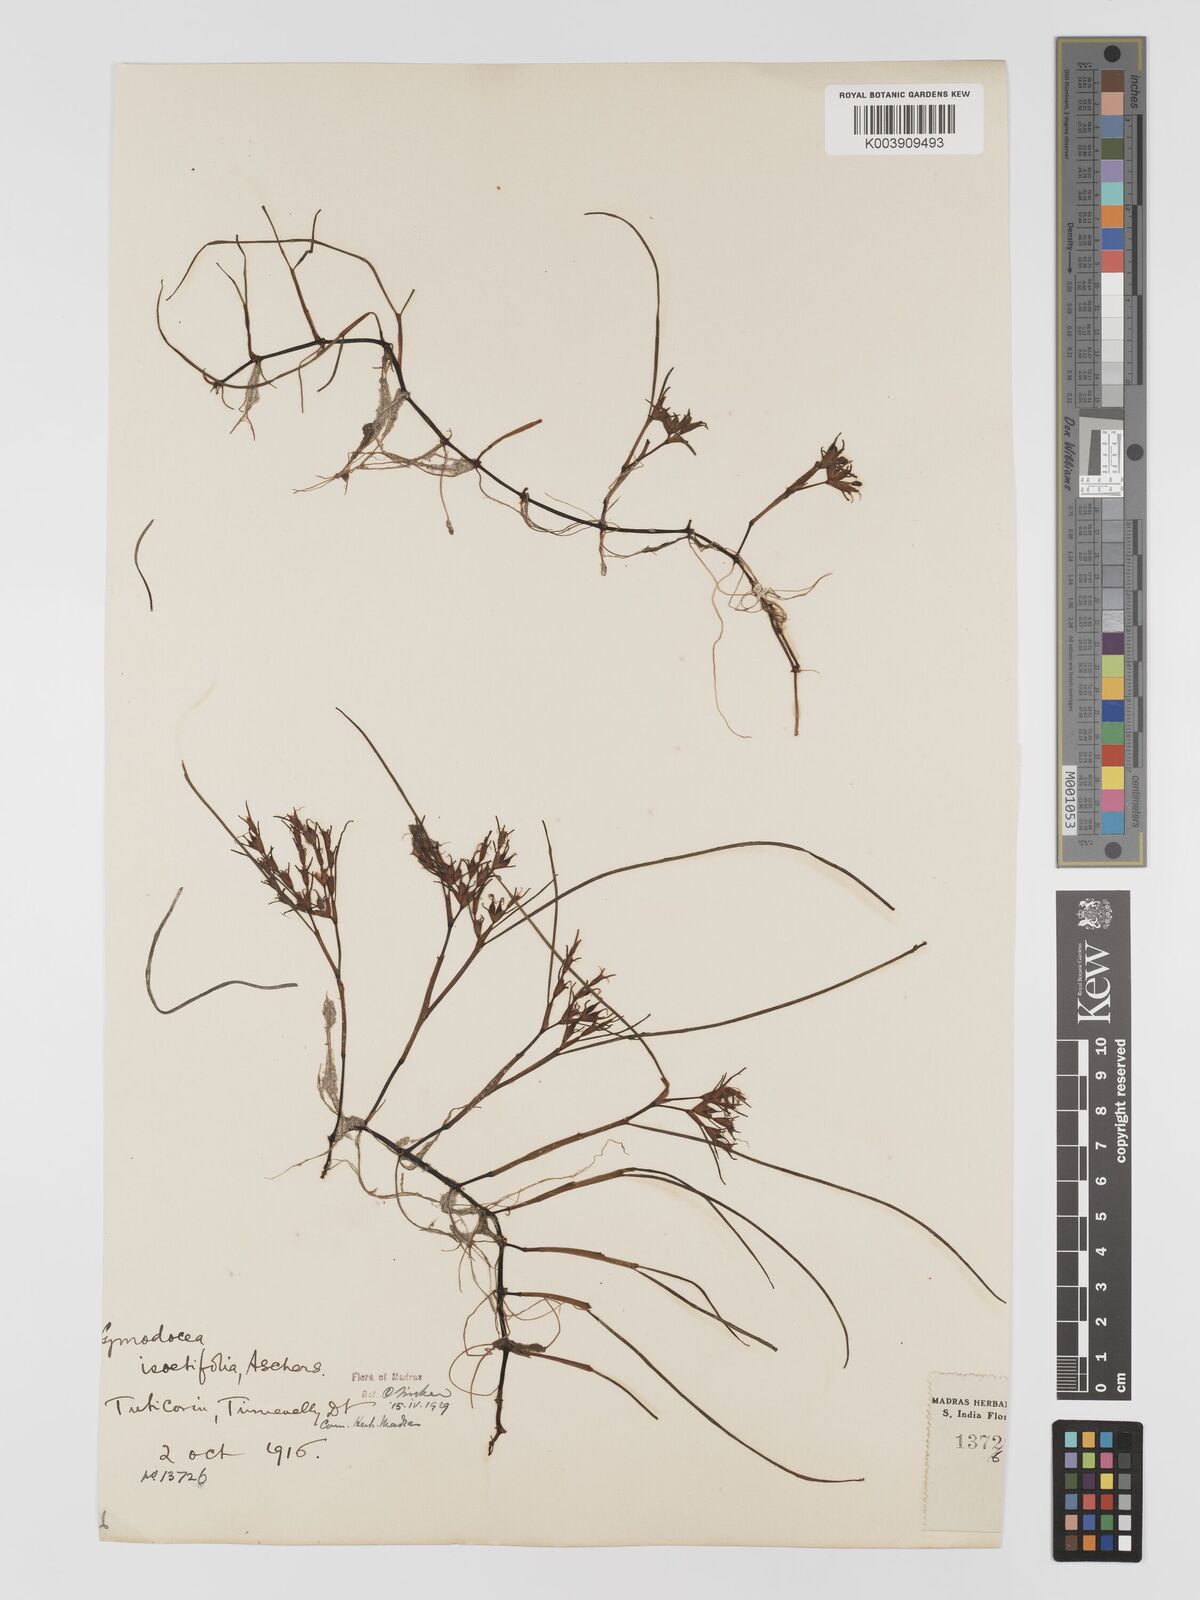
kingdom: Plantae
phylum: Tracheophyta
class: Liliopsida
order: Alismatales
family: Cymodoceaceae
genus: Syringodium
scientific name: Syringodium isoetifolium
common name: Species code: si
